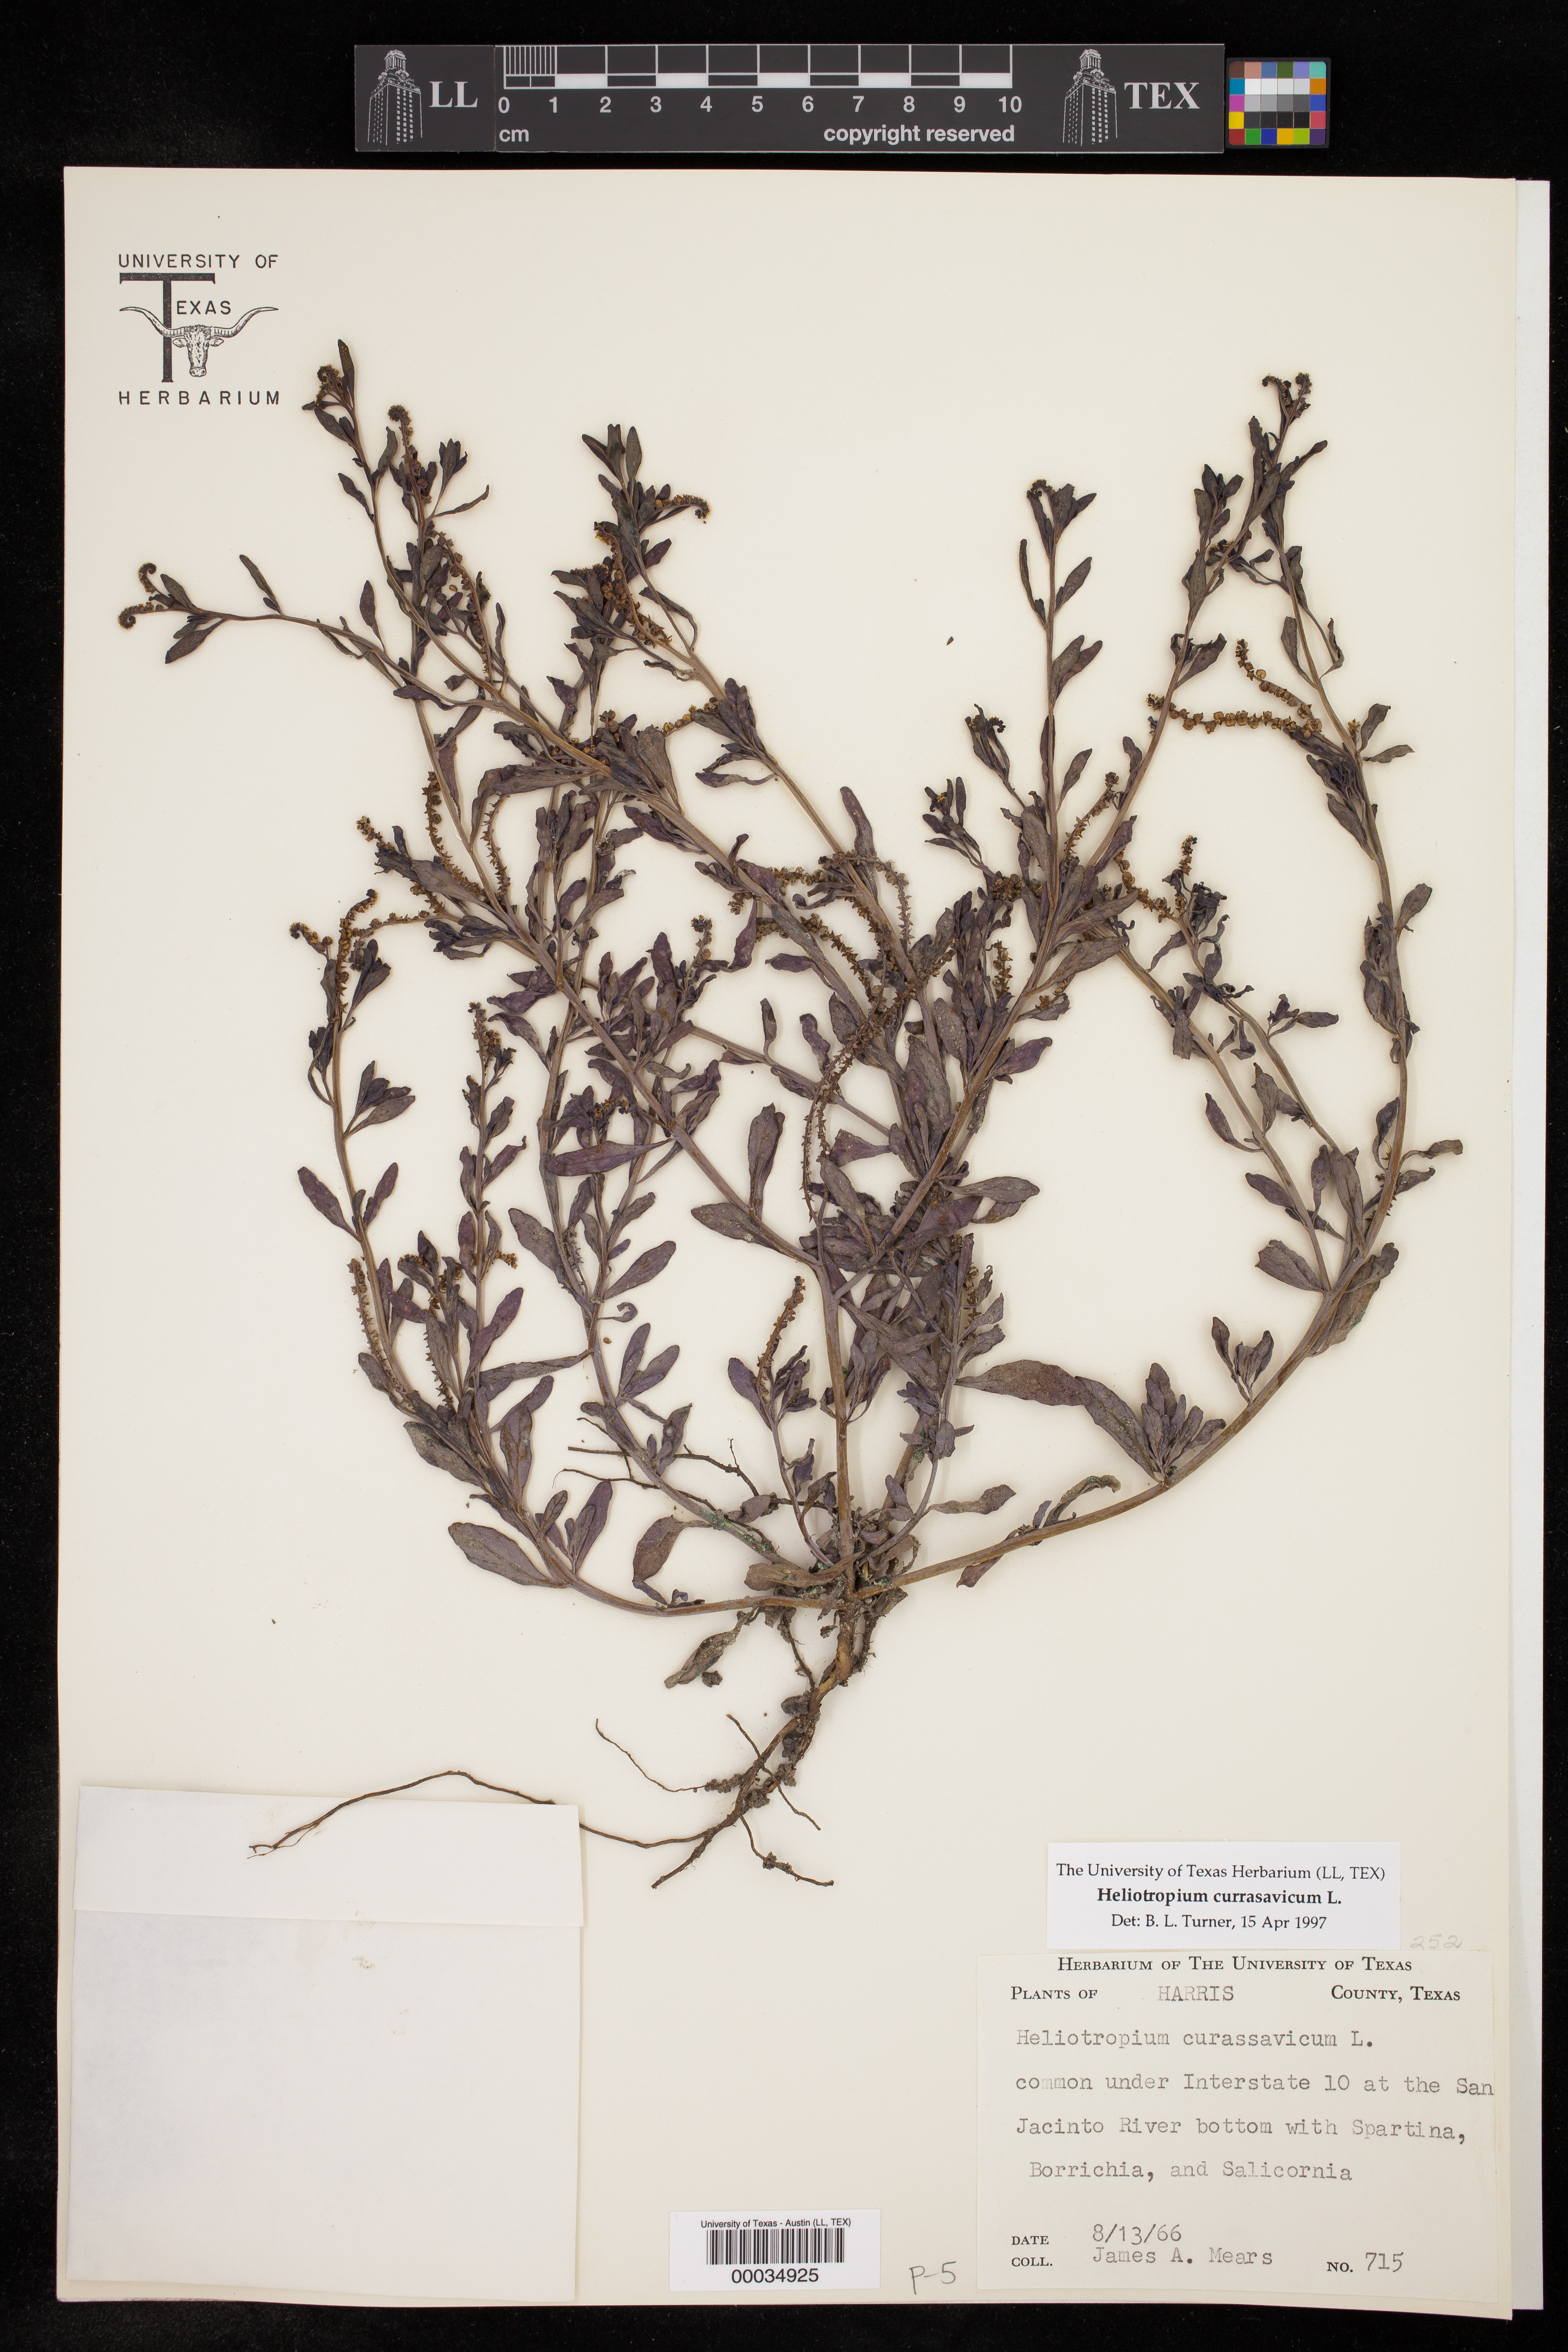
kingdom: Plantae
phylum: Tracheophyta
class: Magnoliopsida
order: Boraginales
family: Heliotropiaceae
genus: Heliotropium
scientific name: Heliotropium curassavicum
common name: Seaside heliotrope
